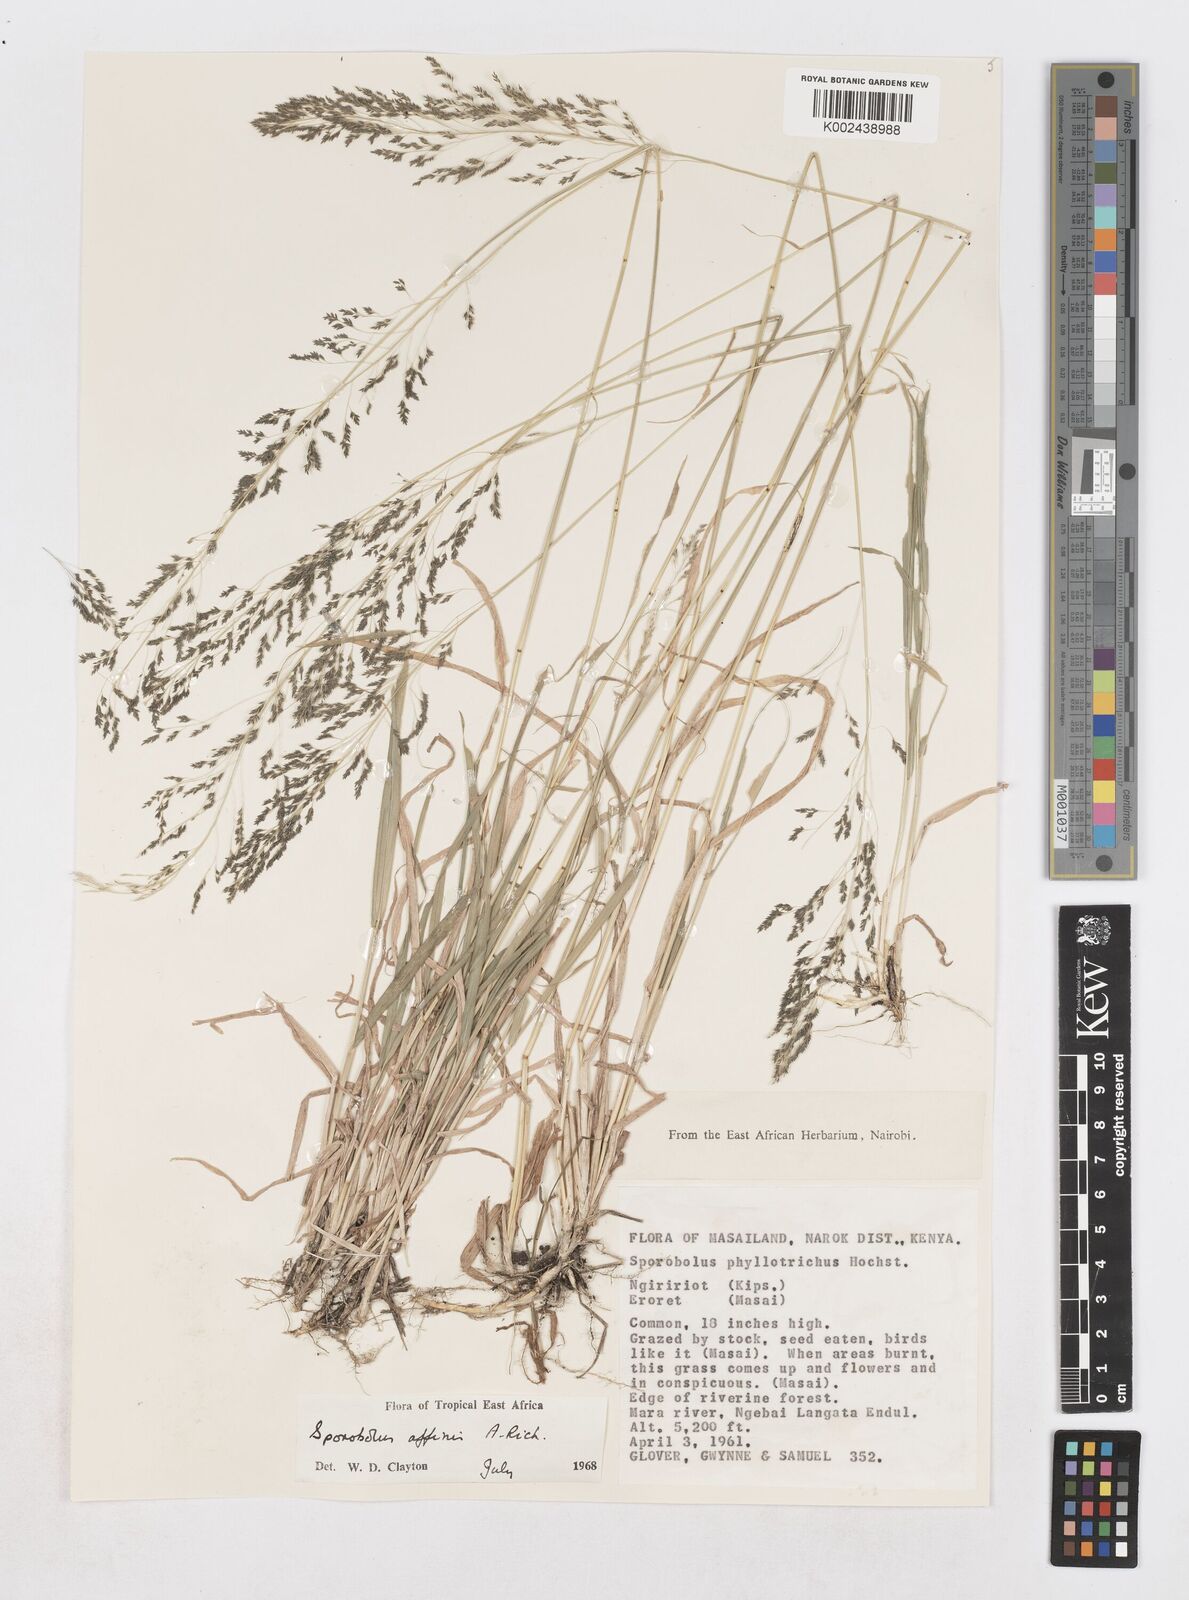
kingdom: Plantae
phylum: Tracheophyta
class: Liliopsida
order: Poales
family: Poaceae
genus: Sporobolus
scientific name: Sporobolus confinis
